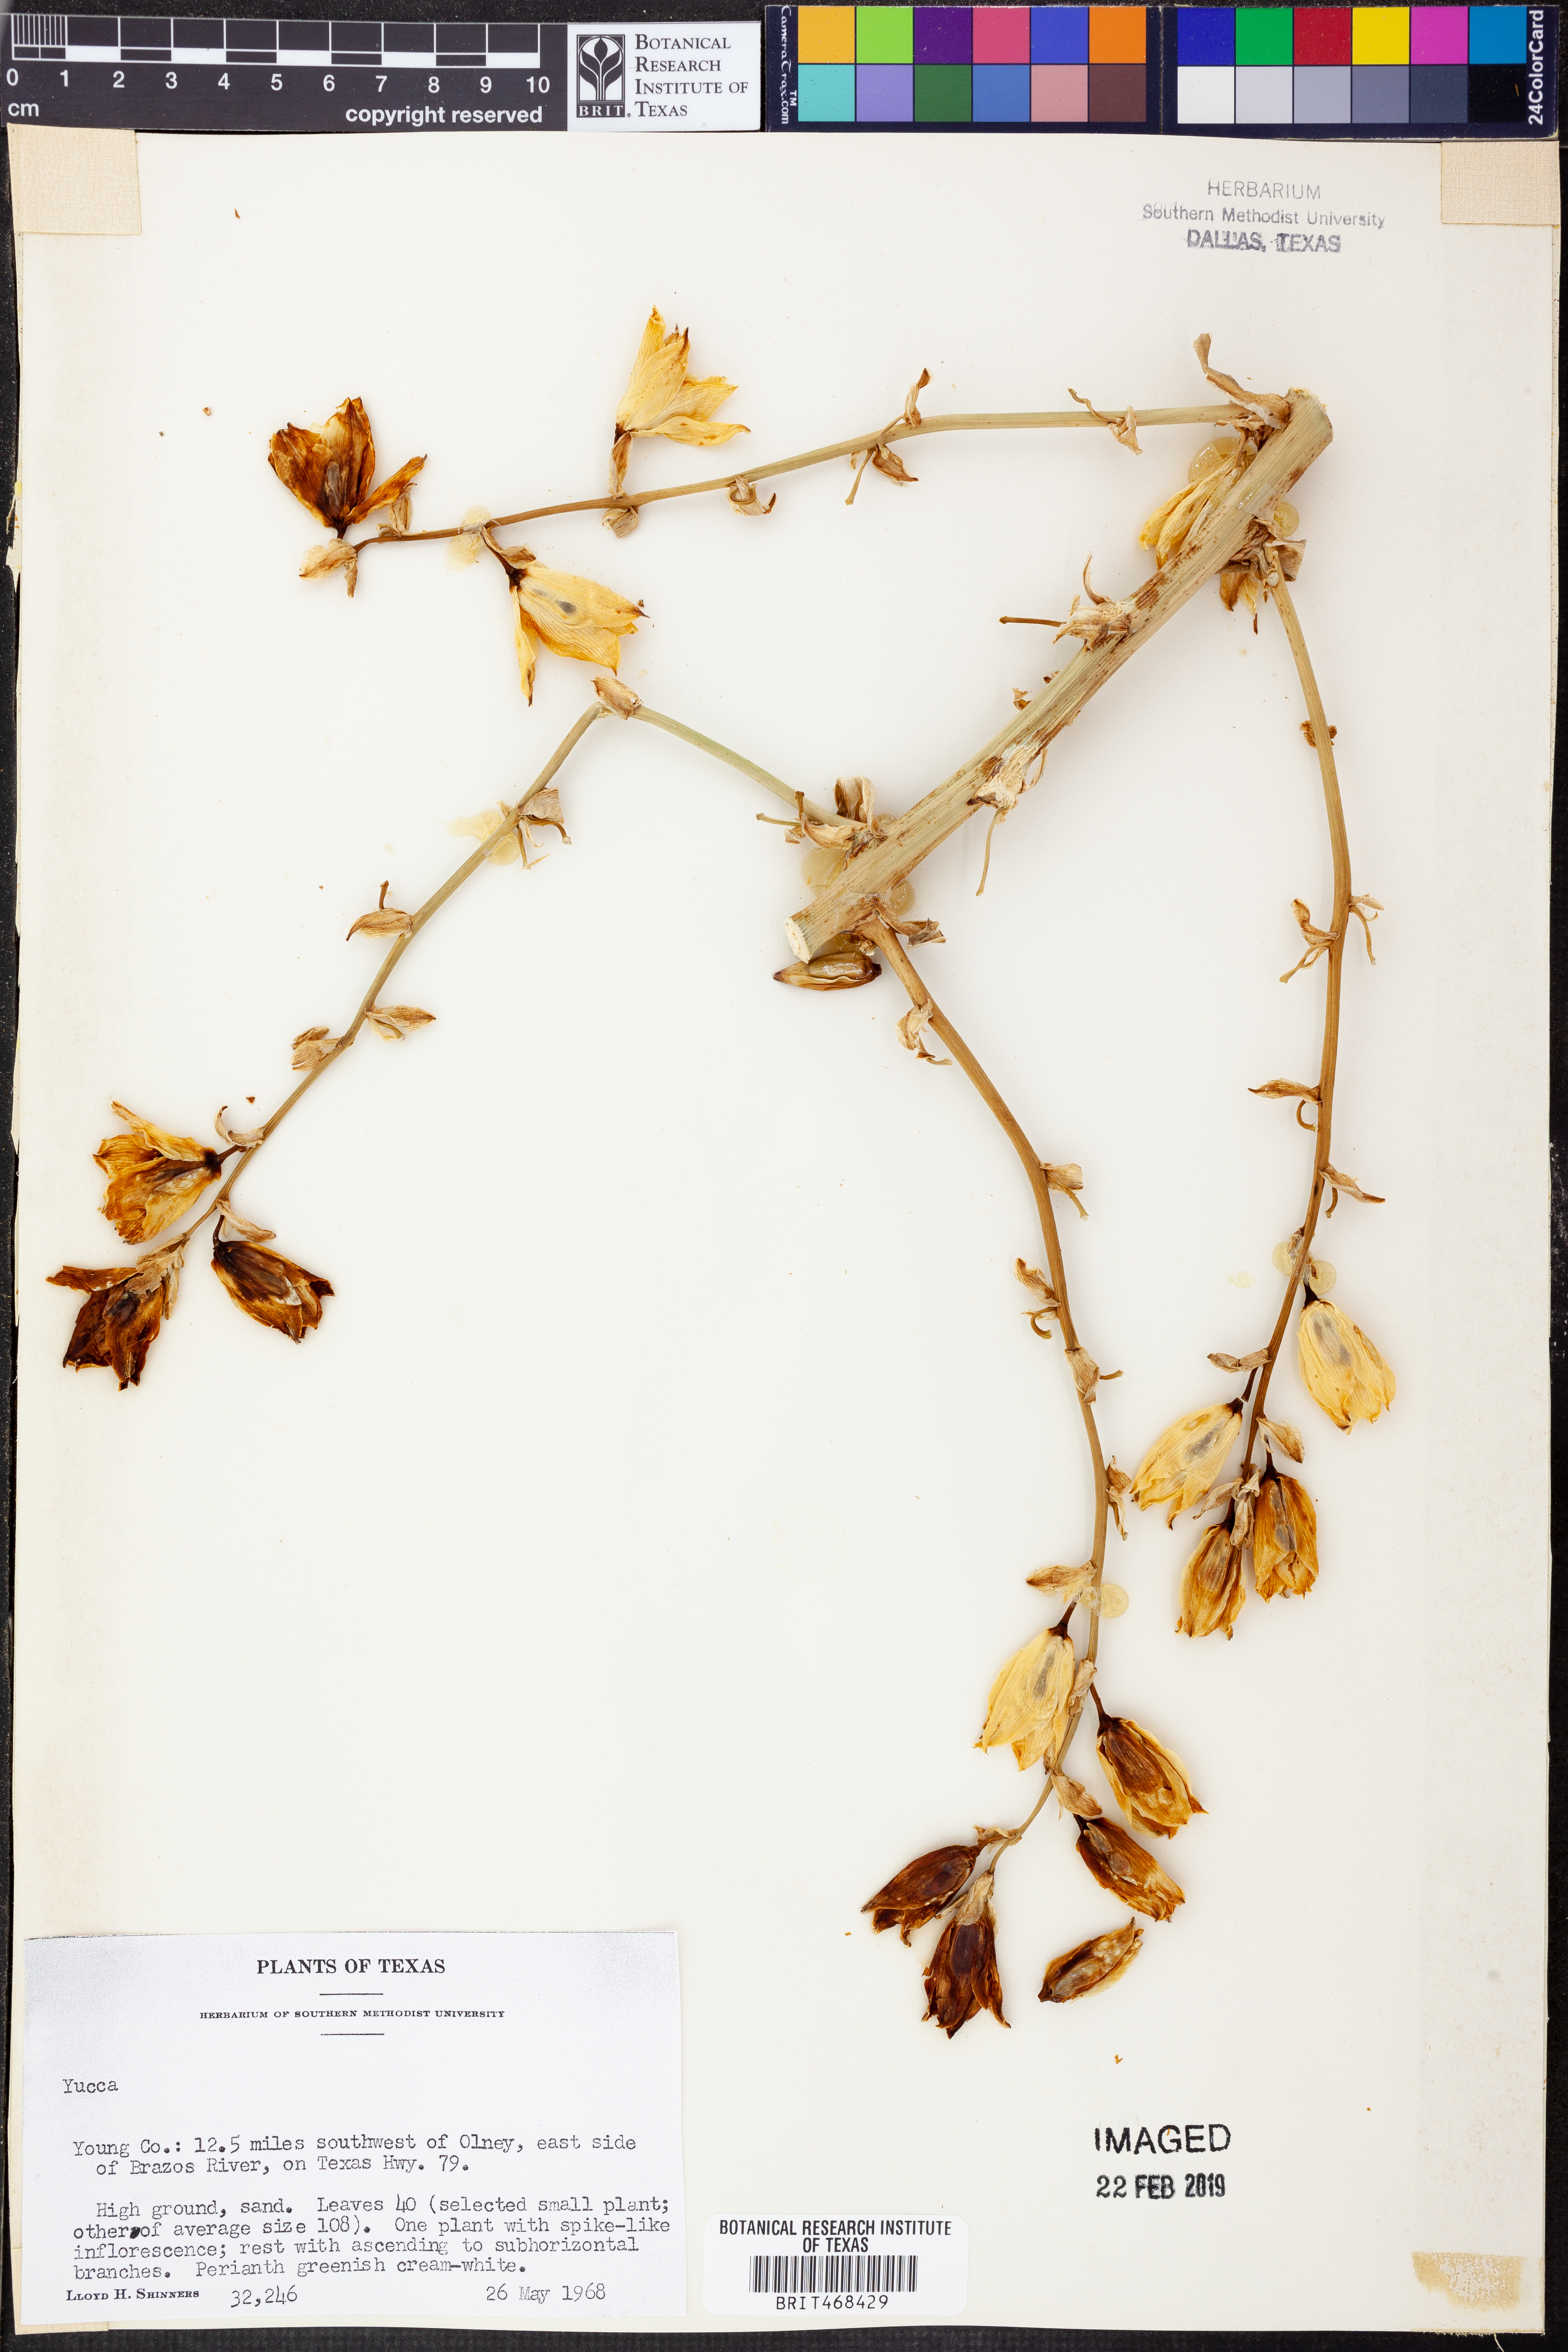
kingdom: Plantae
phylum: Tracheophyta
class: Liliopsida
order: Asparagales
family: Asparagaceae
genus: Yucca
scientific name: Yucca
